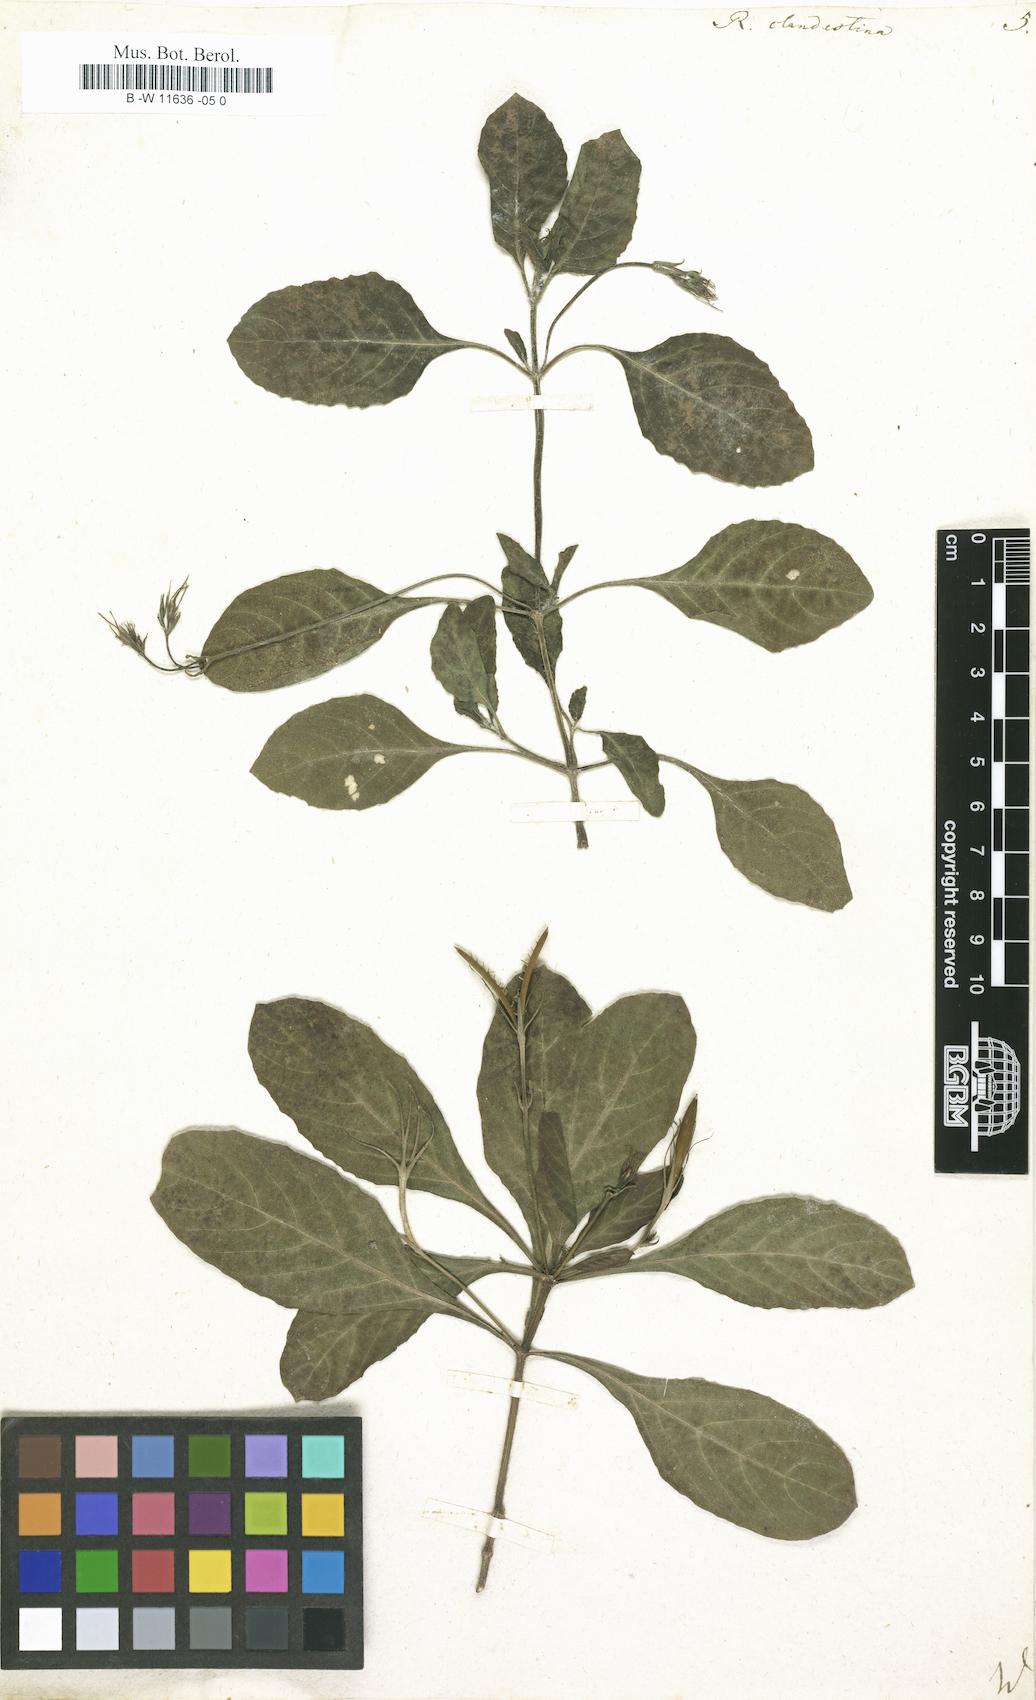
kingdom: Plantae
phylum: Tracheophyta
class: Magnoliopsida
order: Lamiales
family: Acanthaceae
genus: Ruellia
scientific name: Ruellia tuberosa
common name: Devil's bit
